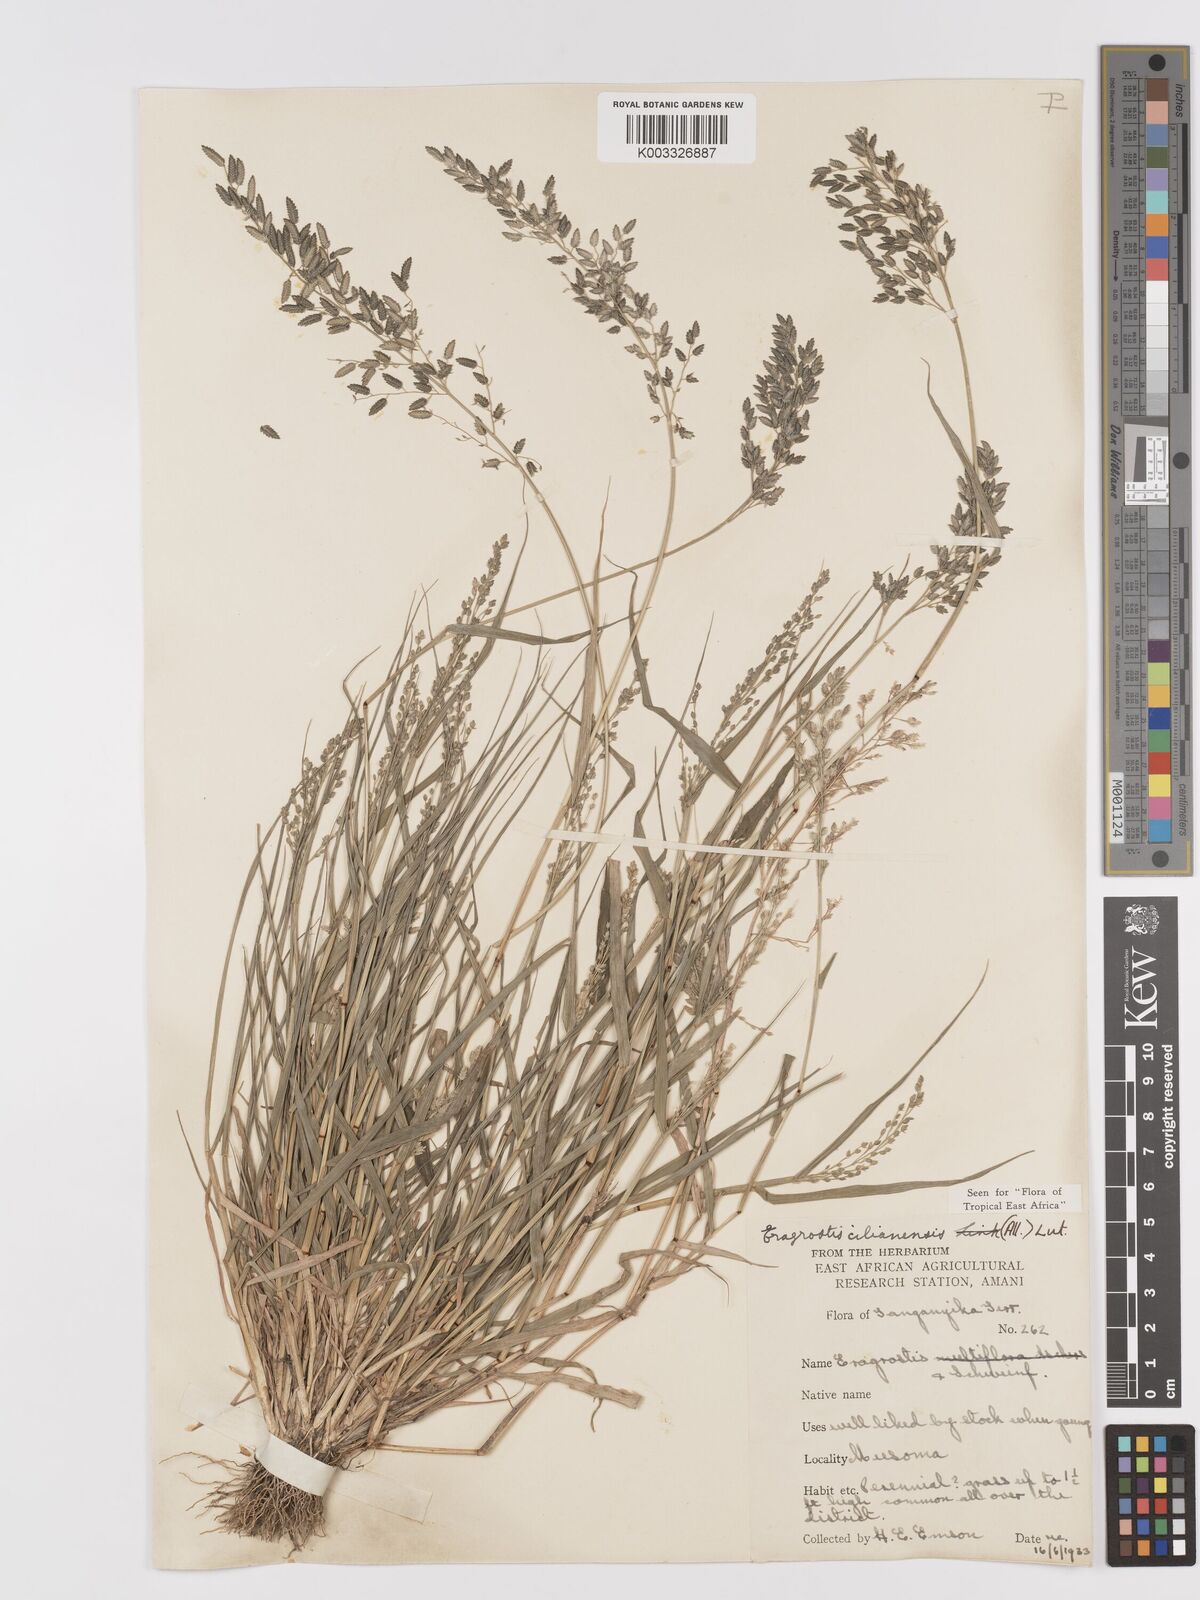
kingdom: Plantae
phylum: Tracheophyta
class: Liliopsida
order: Poales
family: Poaceae
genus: Eragrostis
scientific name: Eragrostis cilianensis
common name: Stinkgrass
